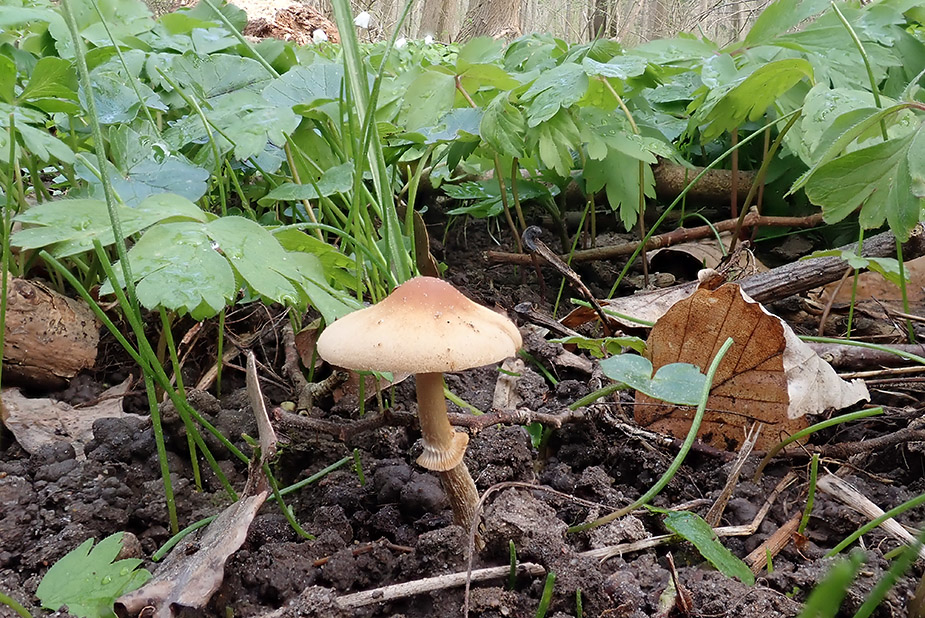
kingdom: Fungi
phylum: Basidiomycota
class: Agaricomycetes
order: Agaricales
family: Bolbitiaceae
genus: Conocybe
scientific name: Conocybe aporos
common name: tidlig dansehat
